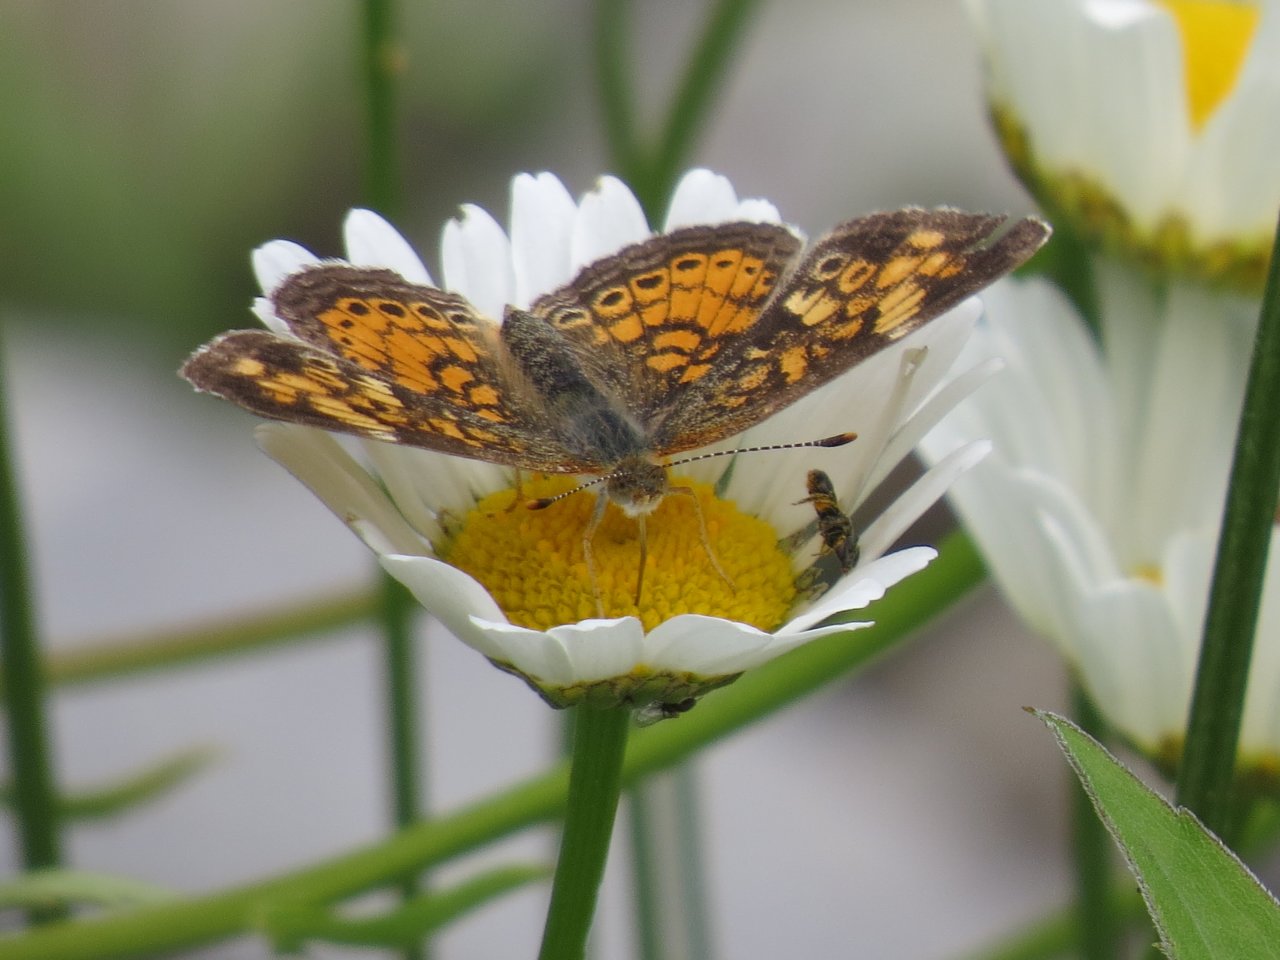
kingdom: Animalia
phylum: Arthropoda
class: Insecta
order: Lepidoptera
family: Nymphalidae
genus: Phyciodes
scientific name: Phyciodes tharos
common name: Northern Crescent
